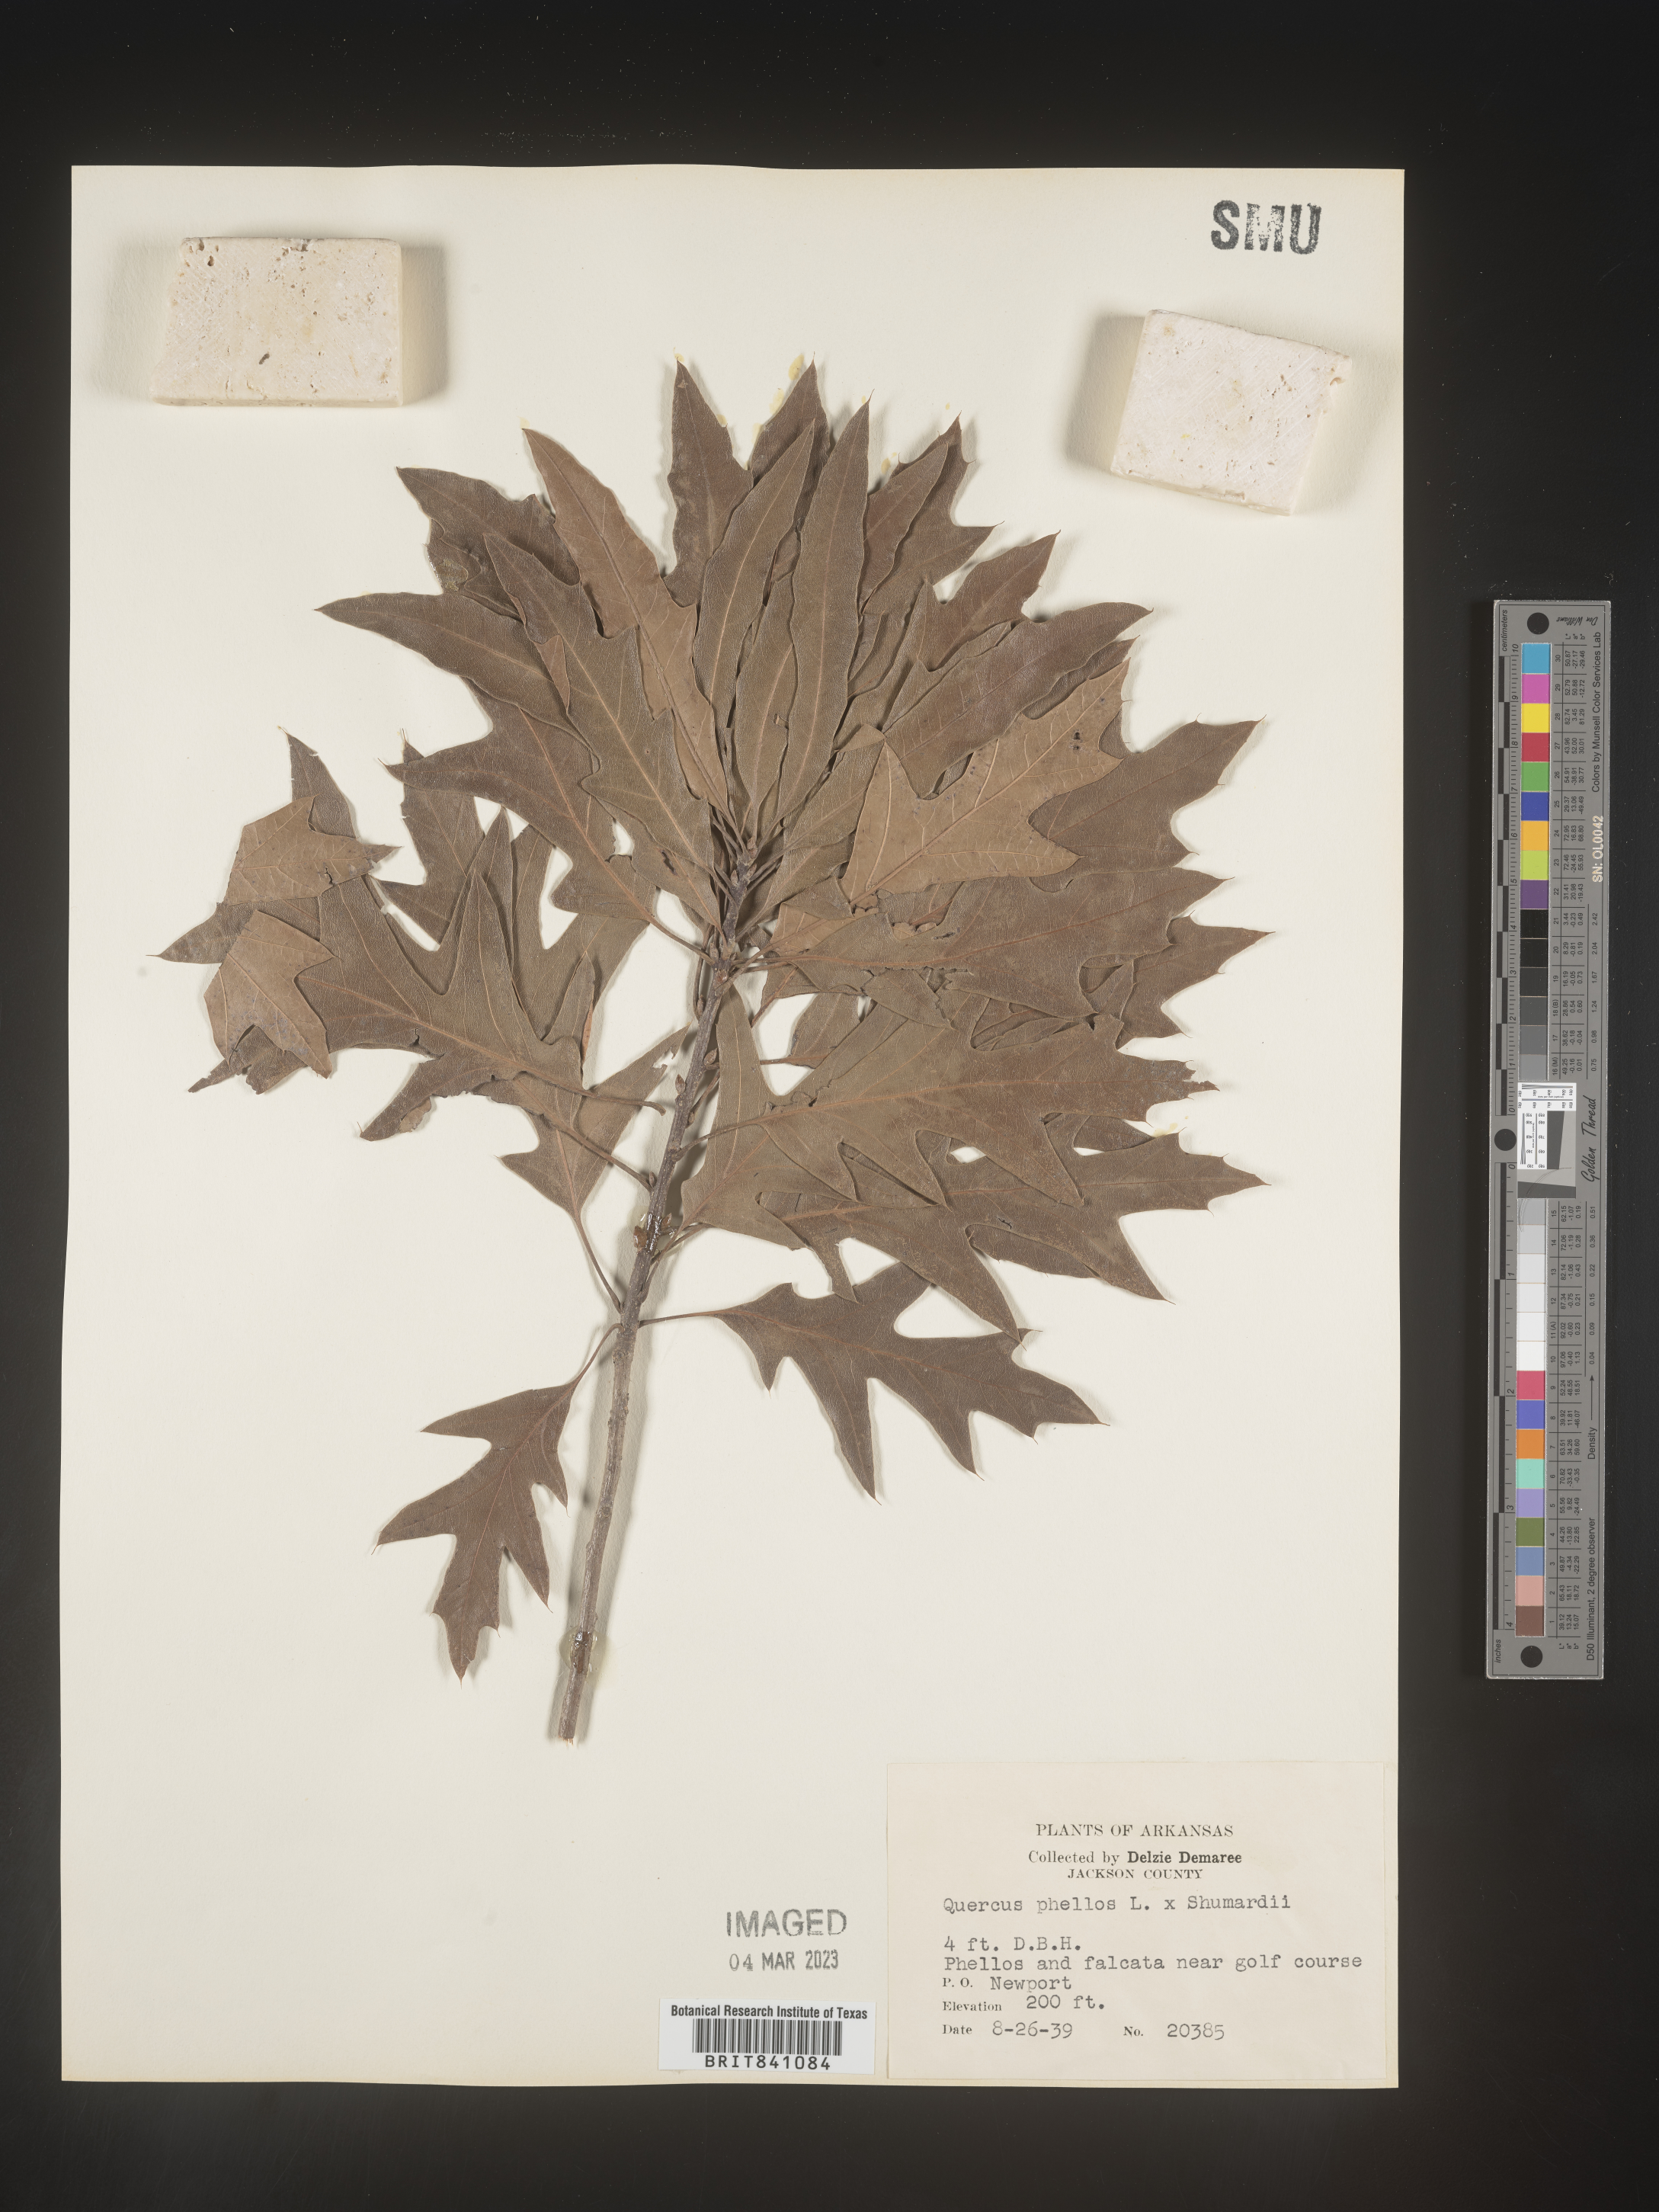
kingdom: Plantae
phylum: Tracheophyta
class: Magnoliopsida
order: Fagales
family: Fagaceae
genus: Quercus
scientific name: Quercus phellos
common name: Willow oak
